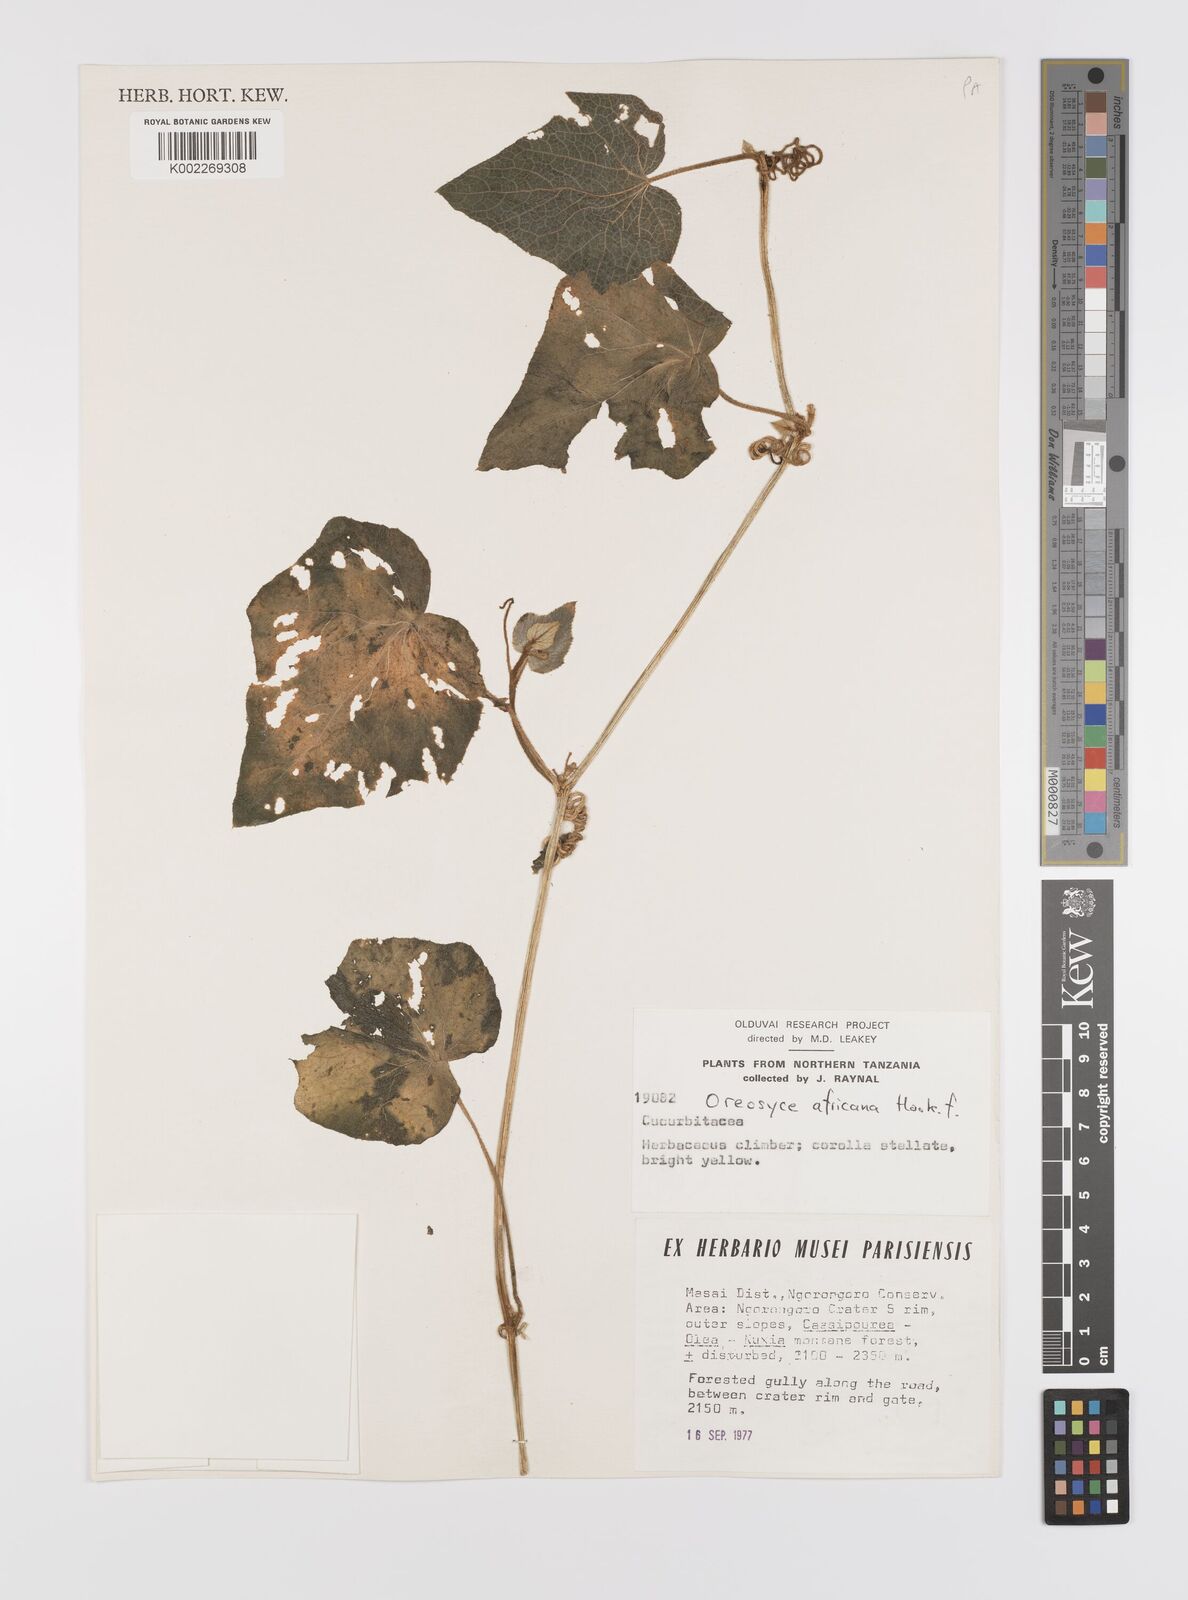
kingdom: Plantae
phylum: Tracheophyta
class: Magnoliopsida
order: Cucurbitales
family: Cucurbitaceae
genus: Cucumis
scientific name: Cucumis oreosyce
